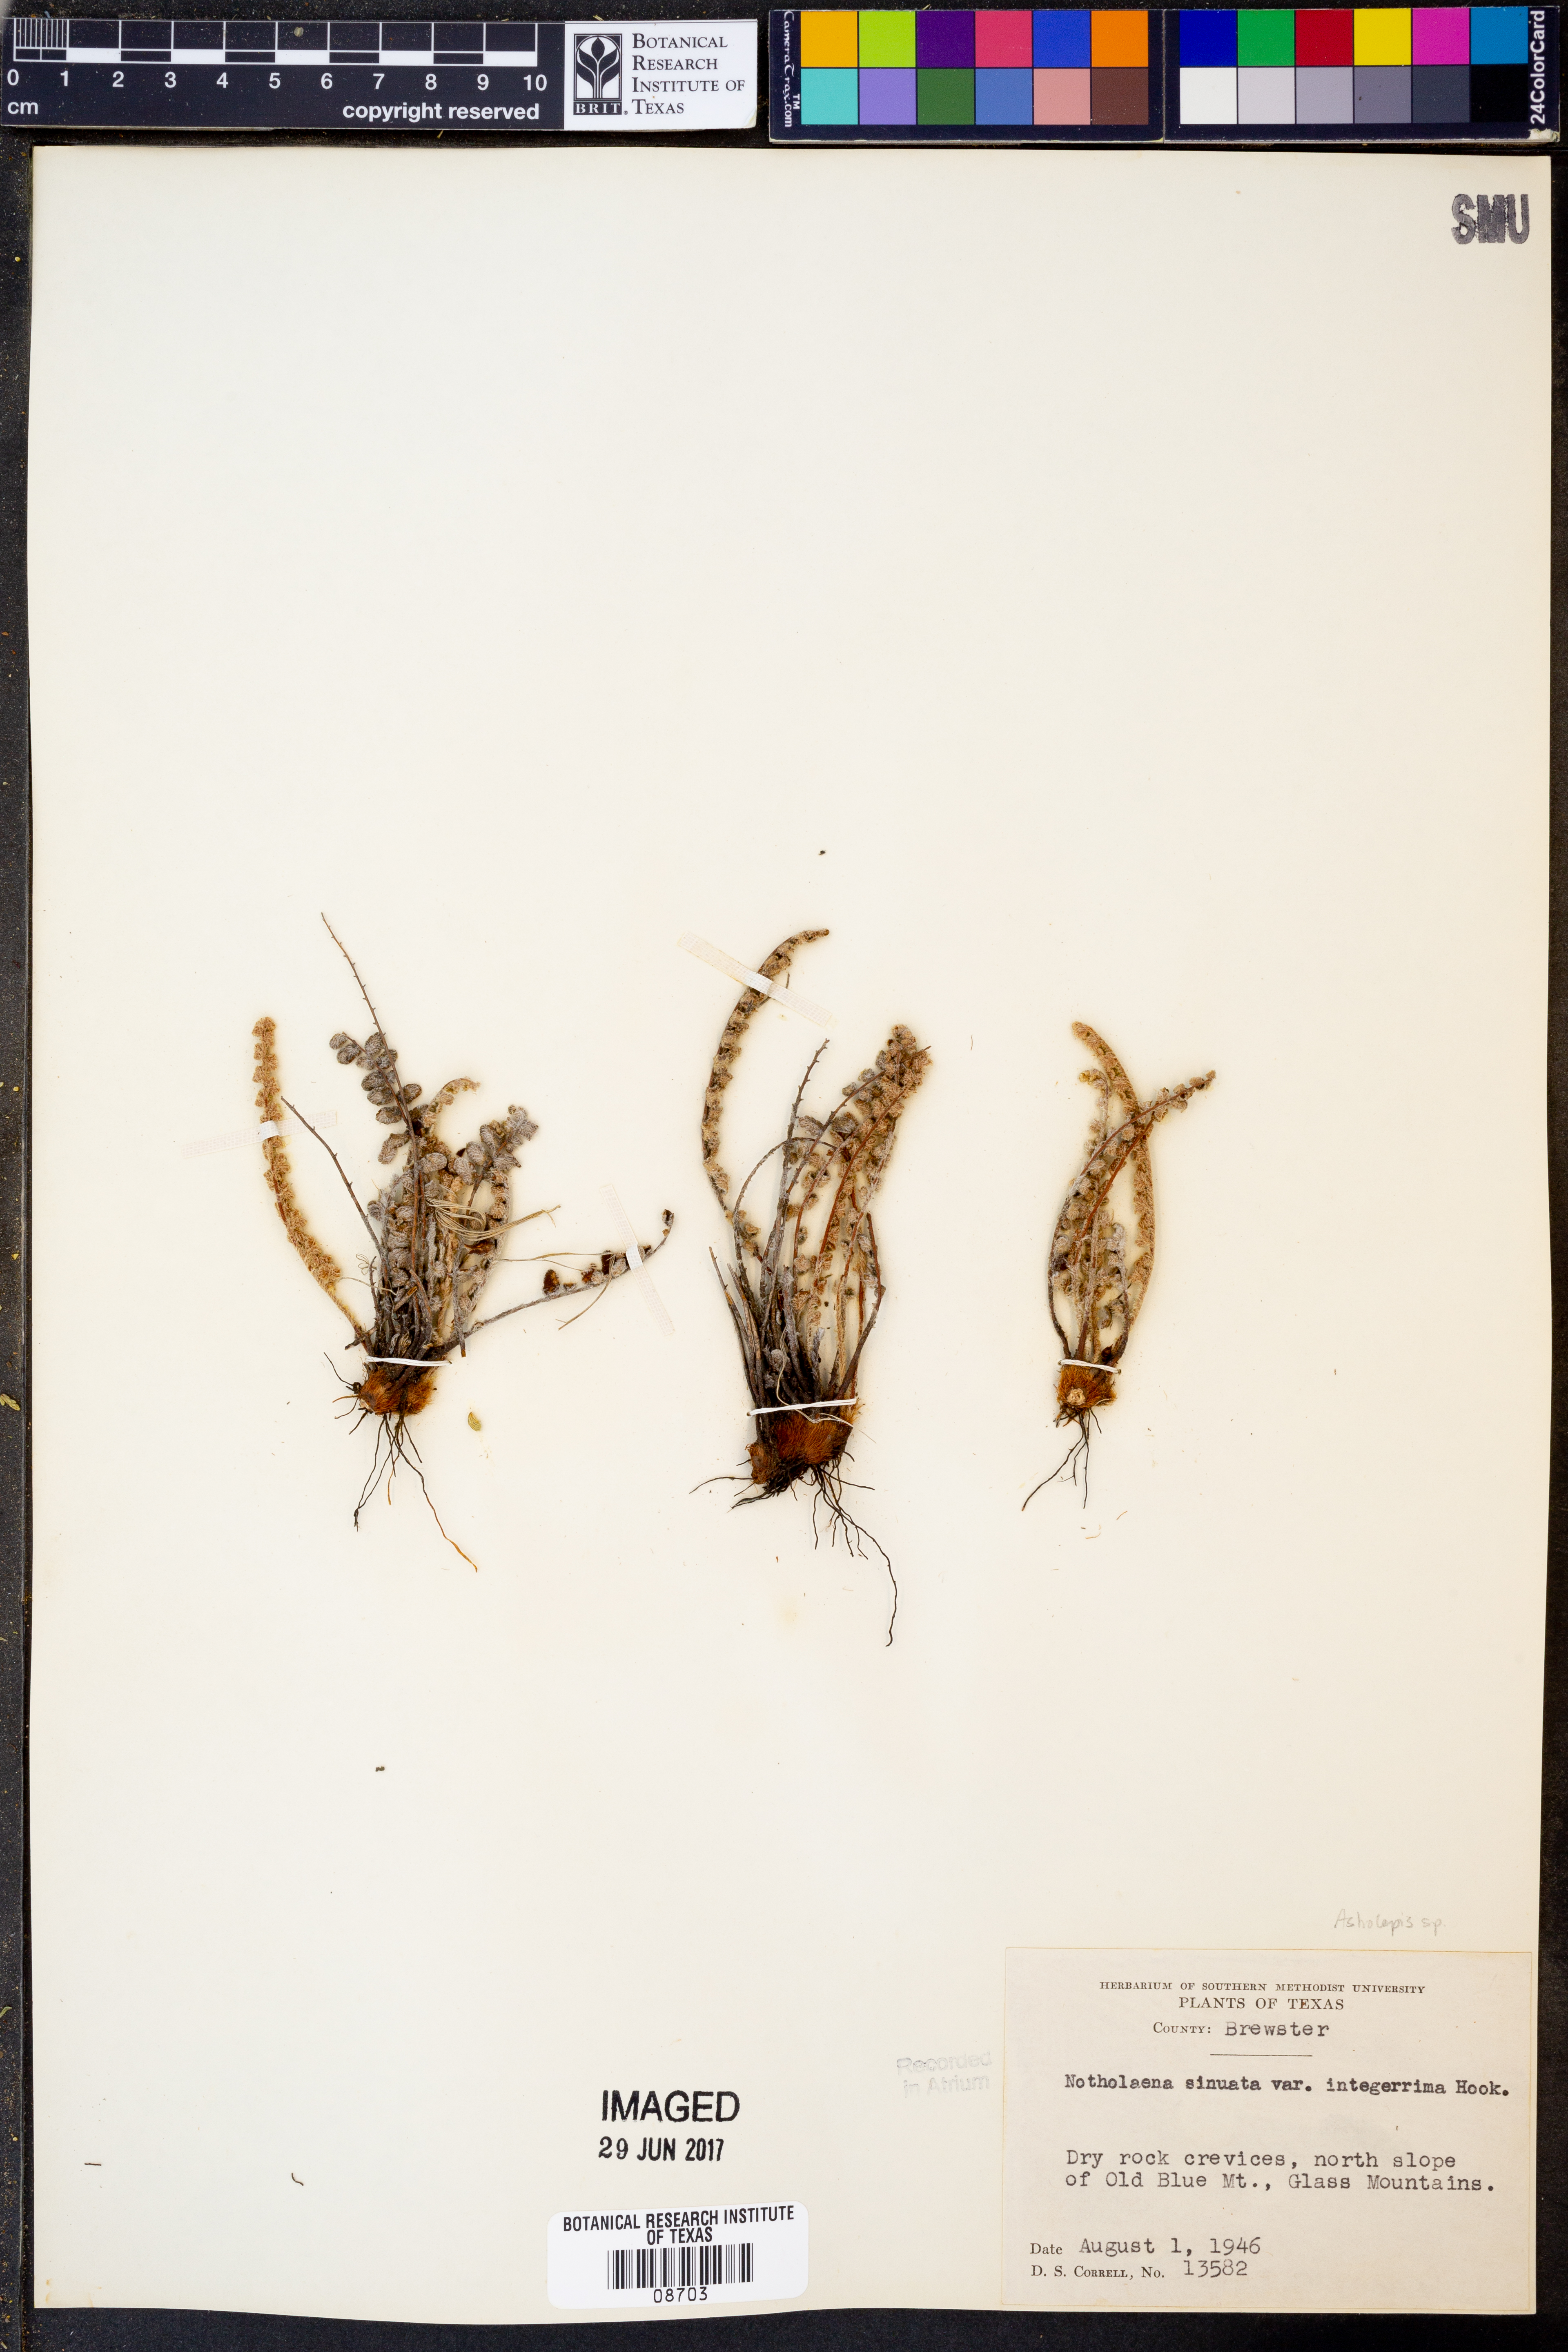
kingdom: Plantae
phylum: Tracheophyta
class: Polypodiopsida
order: Polypodiales
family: Pteridaceae
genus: Astrolepis
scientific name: Astrolepis integerrima
